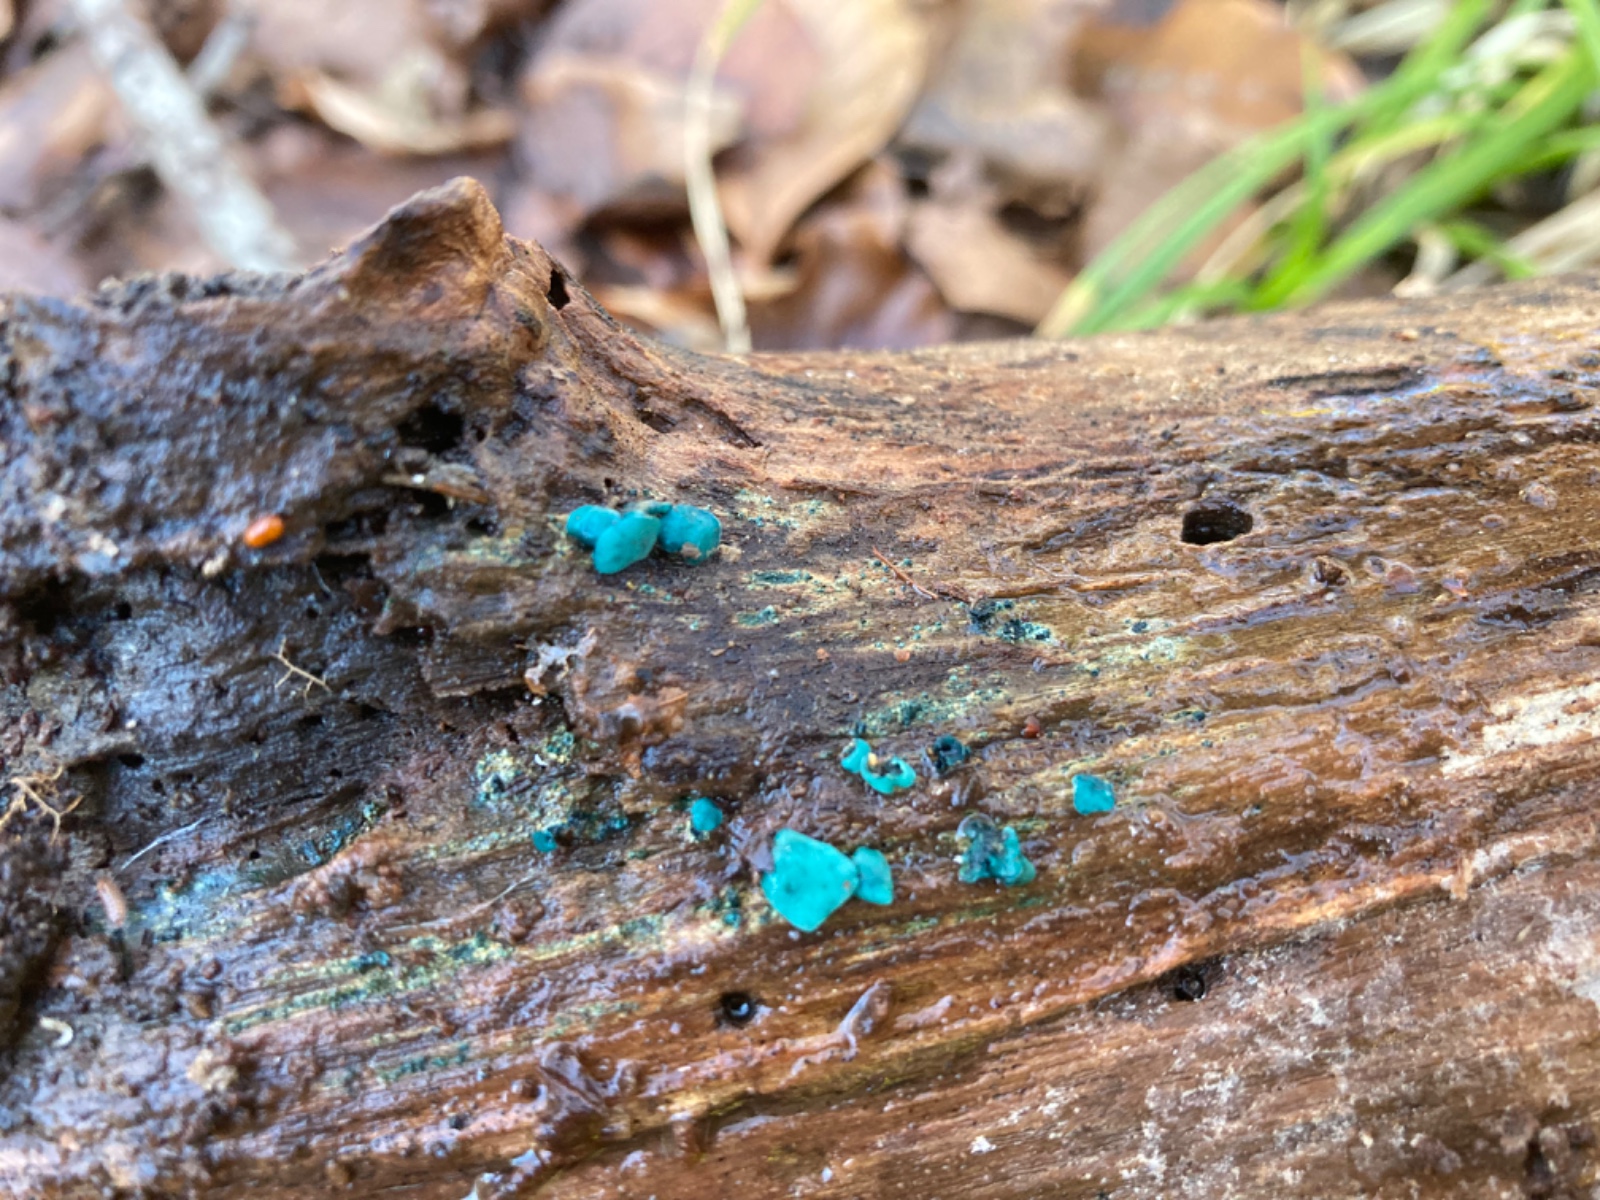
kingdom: Fungi
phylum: Ascomycota
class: Leotiomycetes
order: Helotiales
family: Chlorociboriaceae
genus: Chlorociboria
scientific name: Chlorociboria aeruginascens
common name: almindelig grønskive
